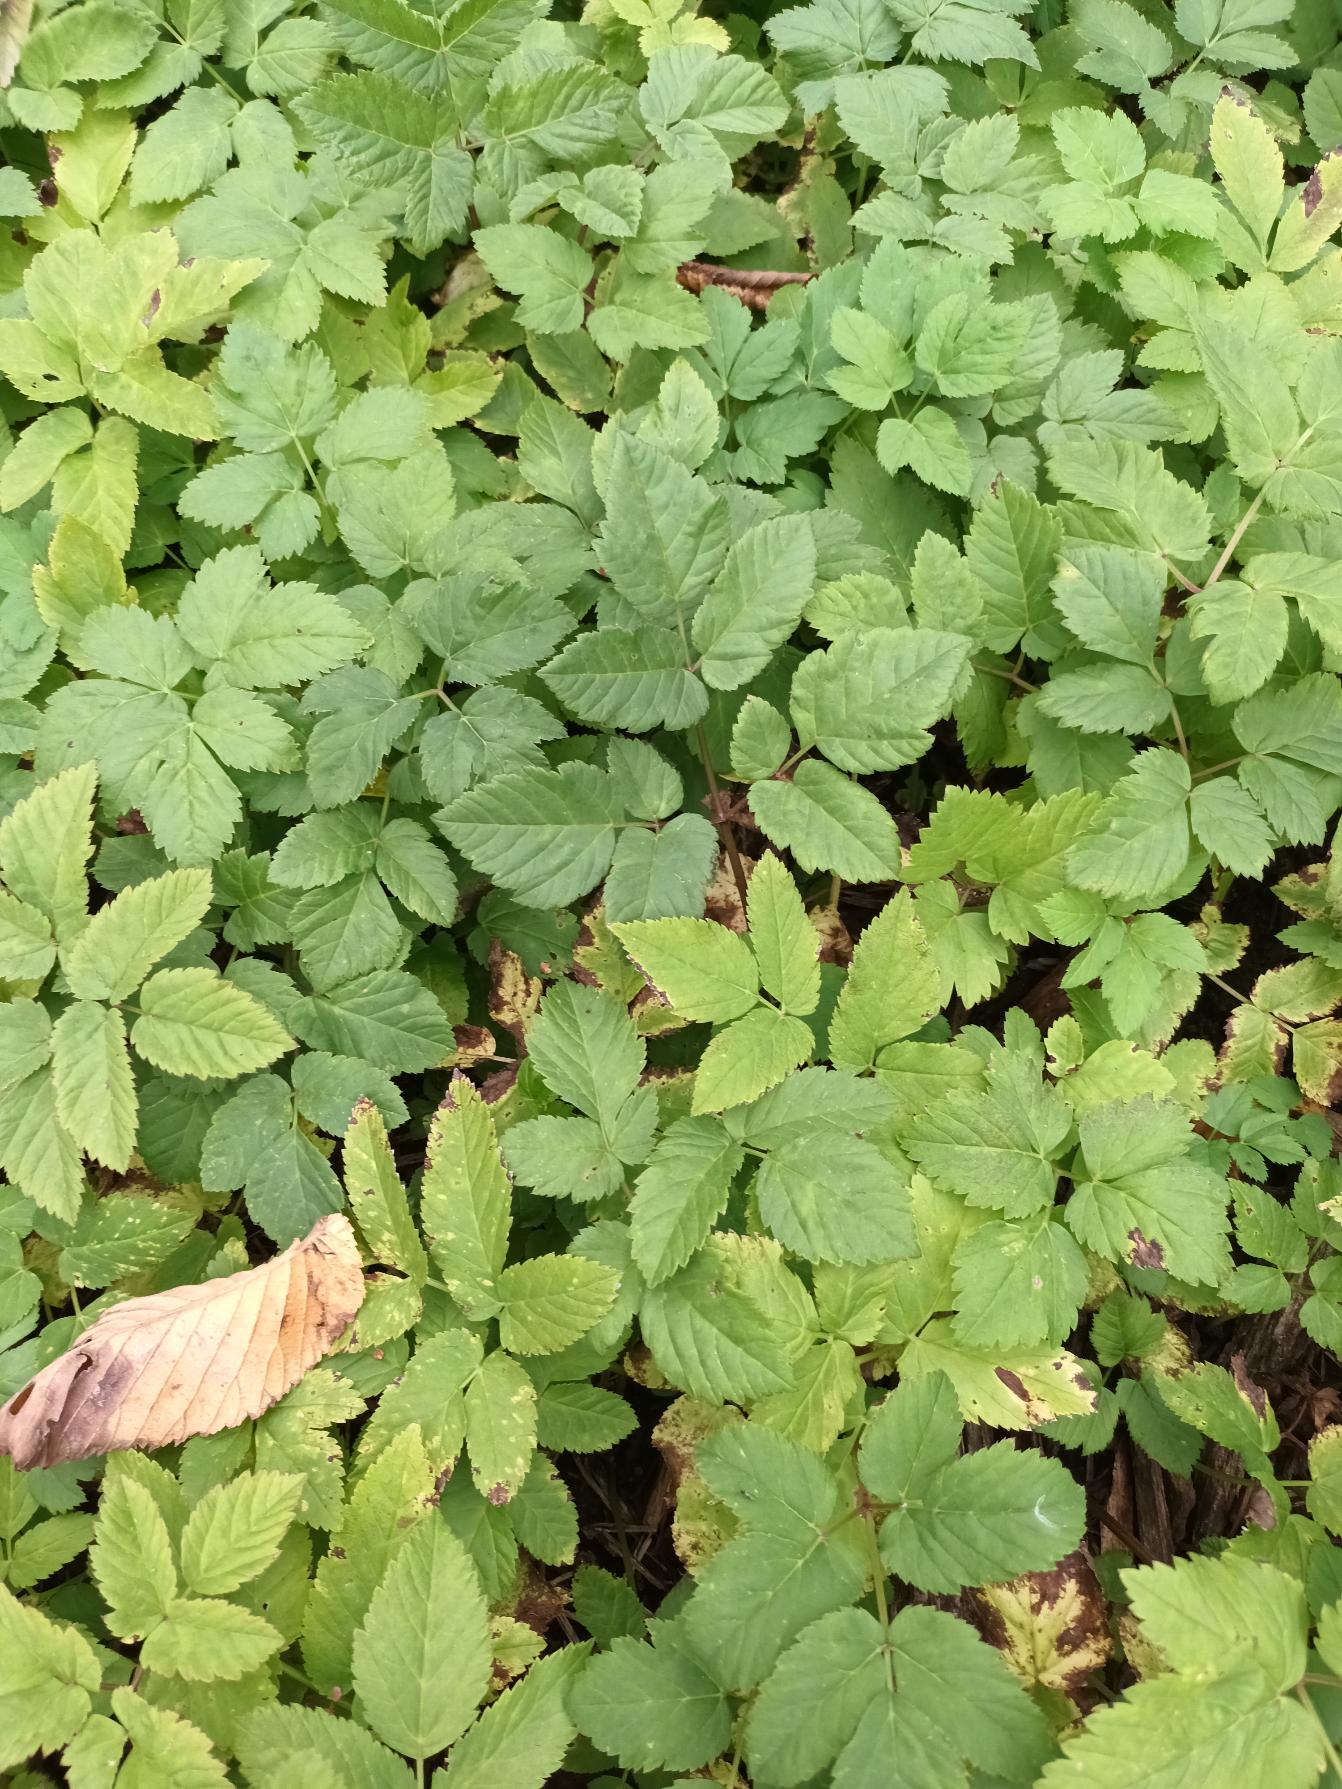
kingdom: Plantae
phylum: Tracheophyta
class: Magnoliopsida
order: Apiales
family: Apiaceae
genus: Aegopodium
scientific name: Aegopodium podagraria
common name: Skvalderkål
